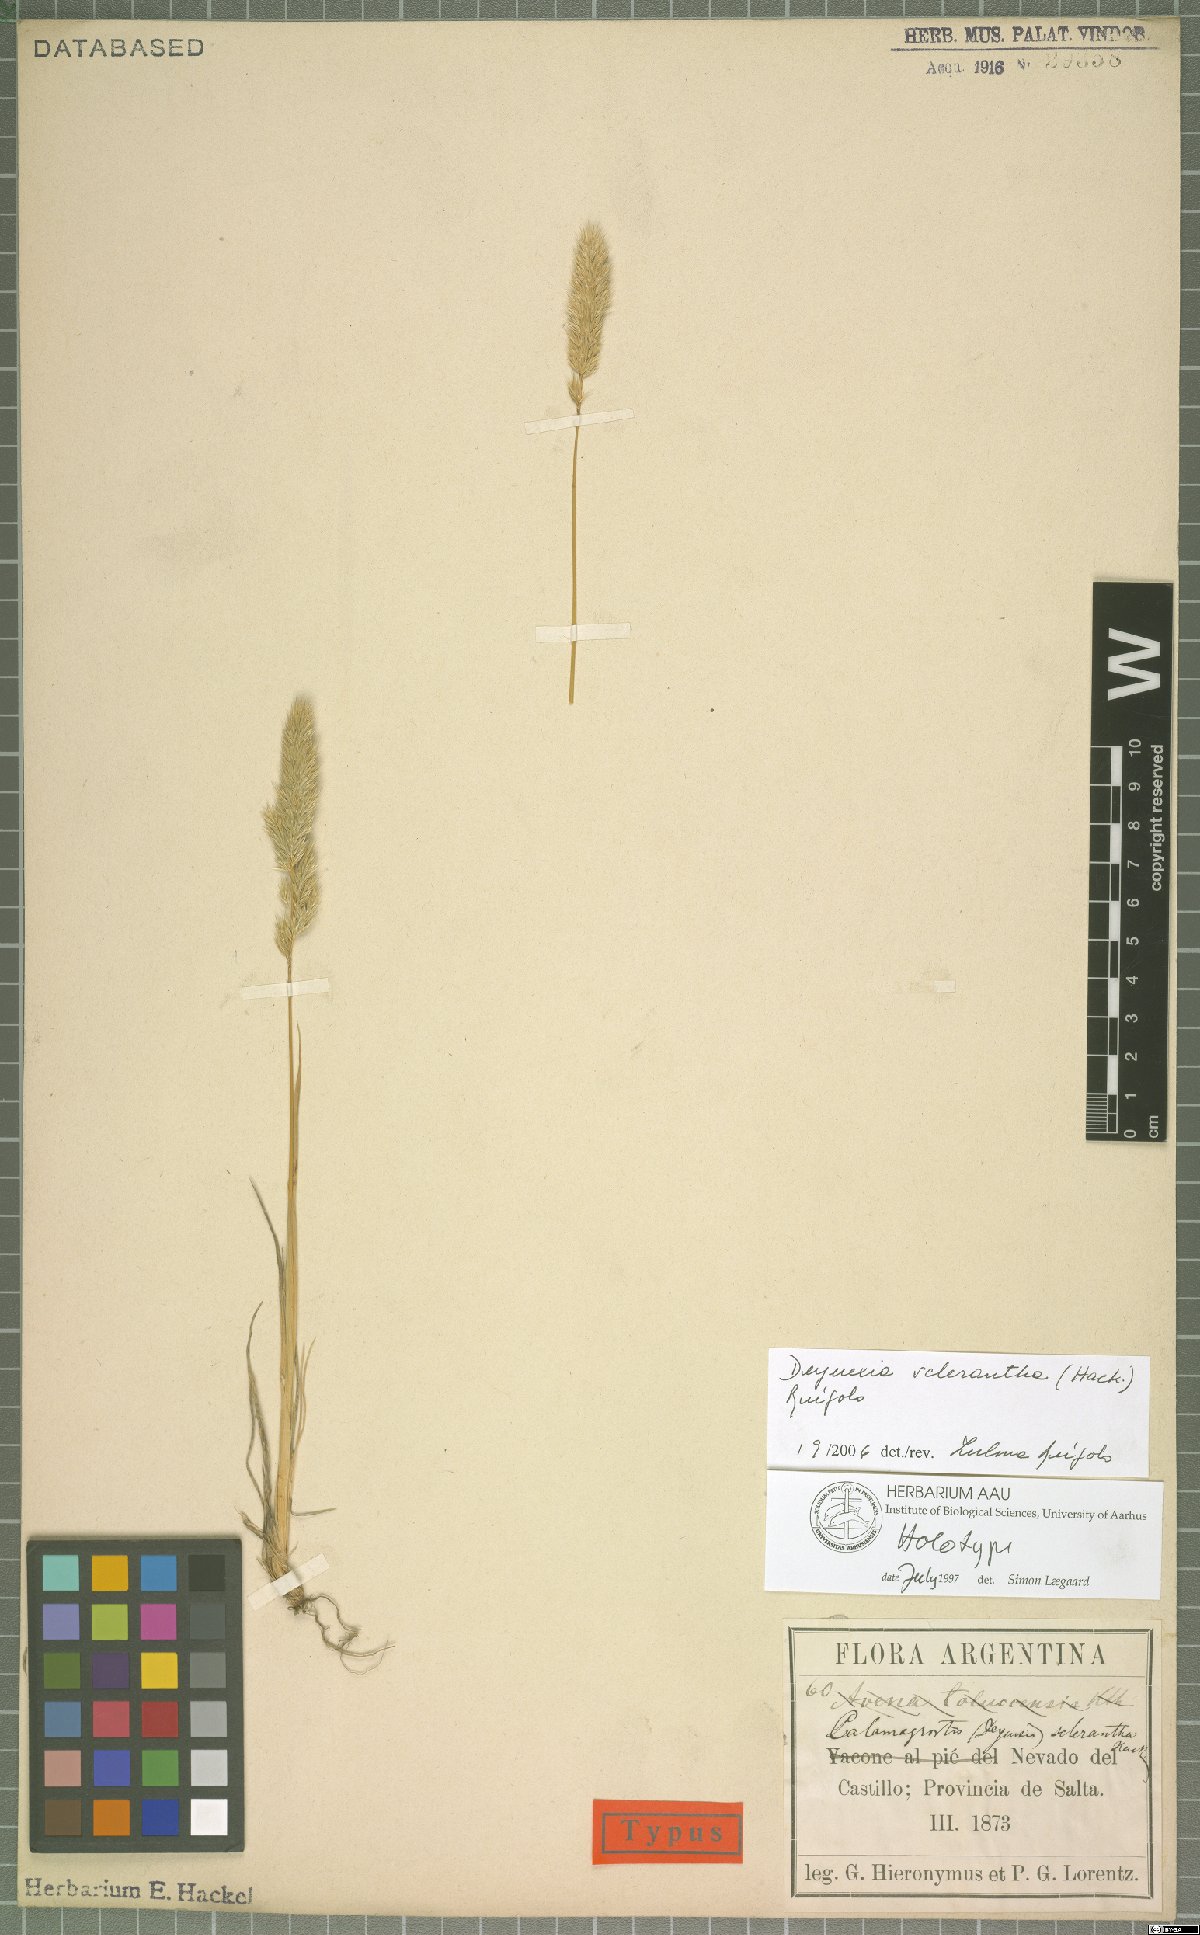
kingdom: Plantae
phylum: Tracheophyta
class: Liliopsida
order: Poales
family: Poaceae
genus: Cinnagrostis
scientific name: Cinnagrostis sclerantha
